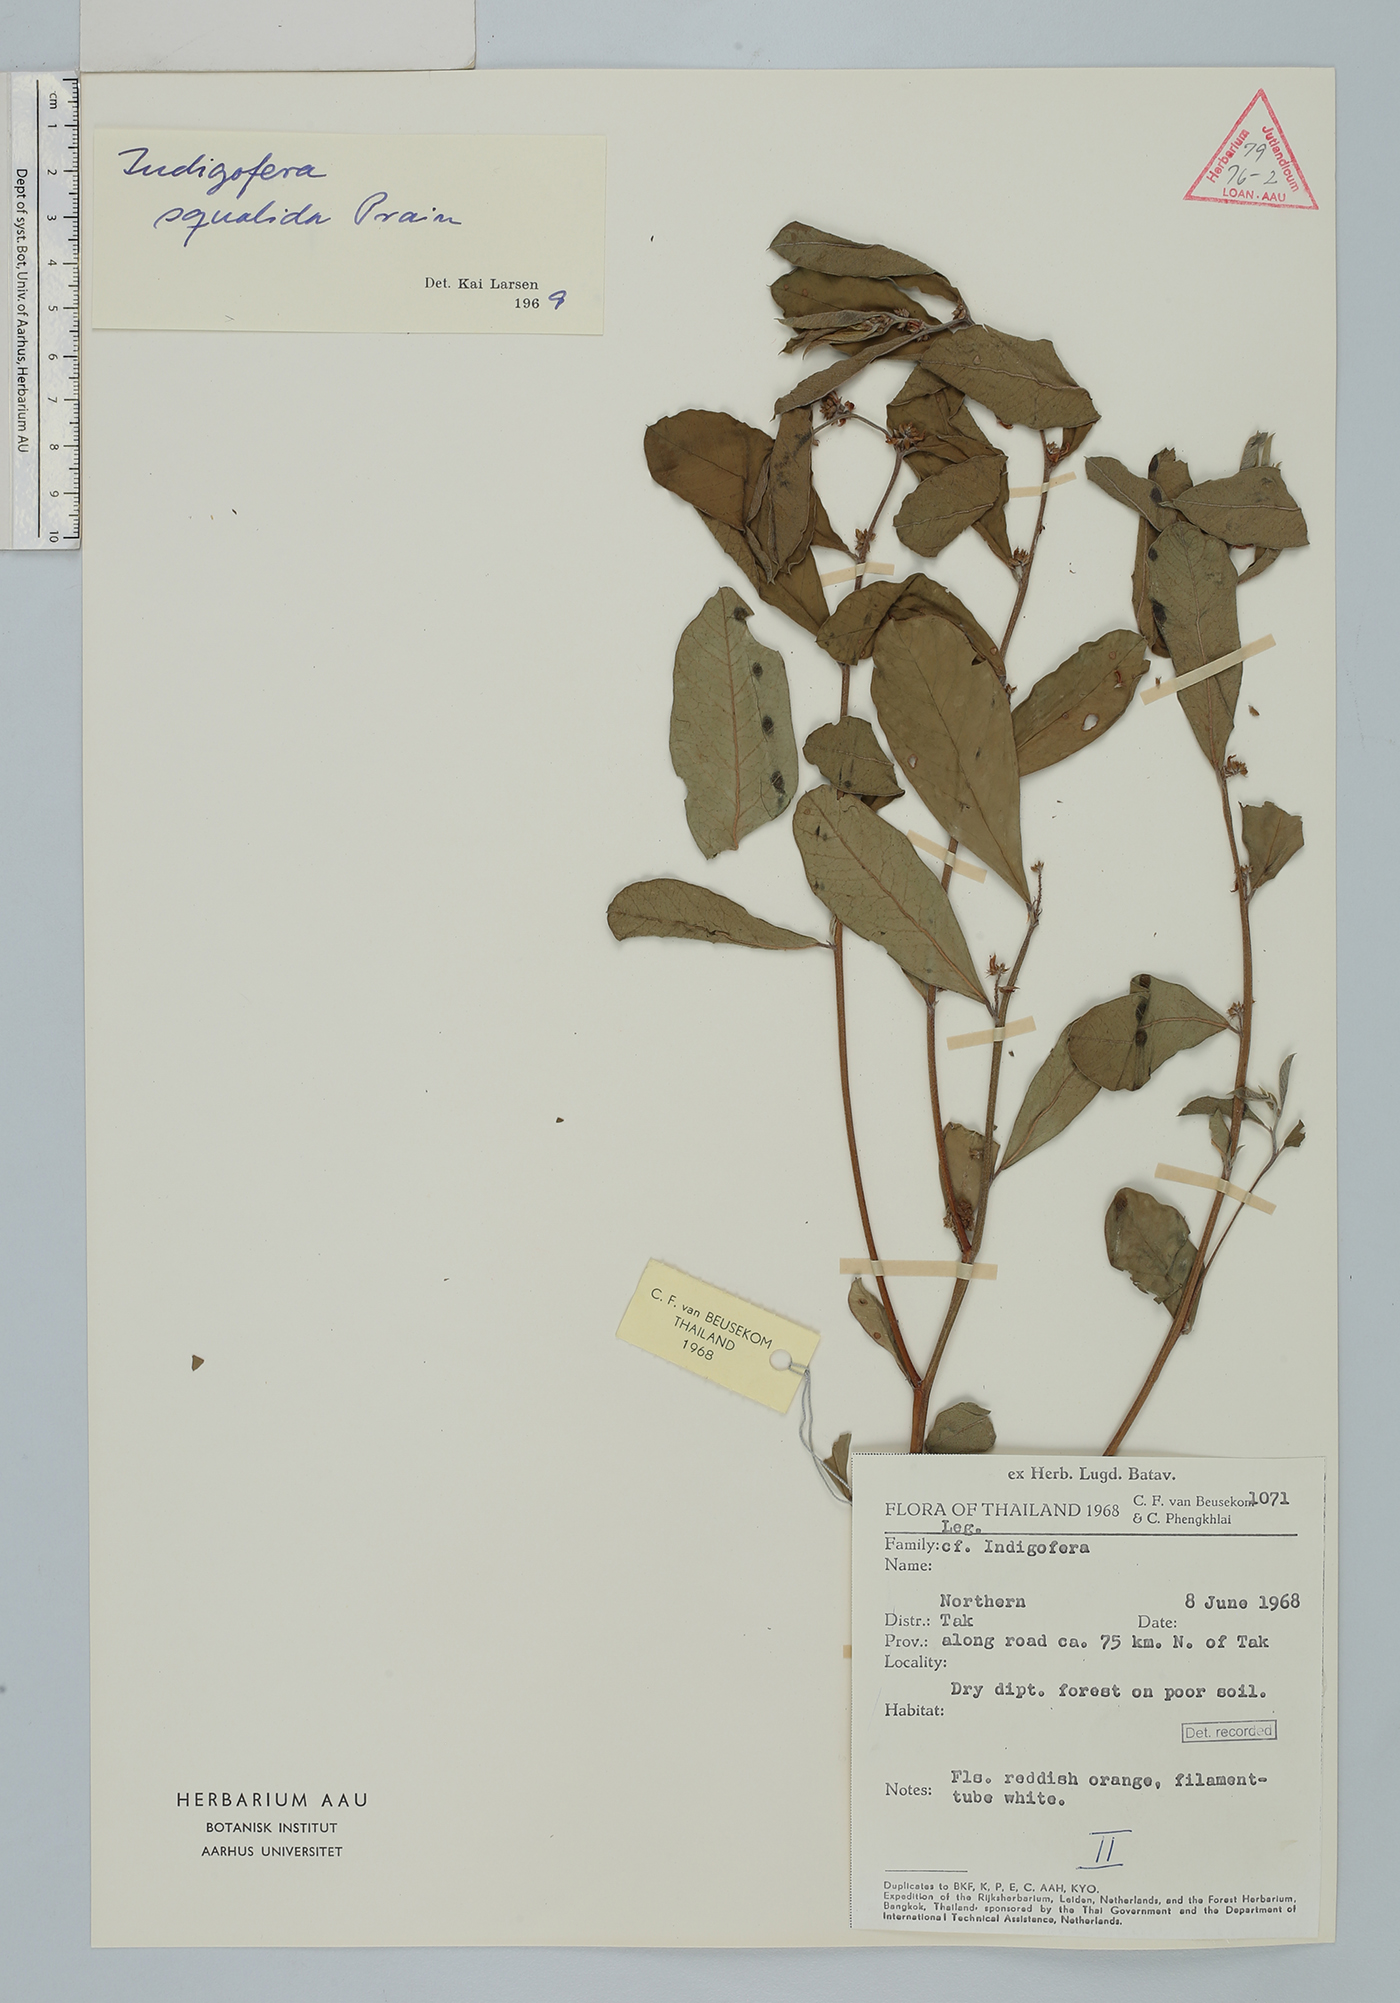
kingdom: Plantae
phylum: Tracheophyta
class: Magnoliopsida
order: Fabales
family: Fabaceae
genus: Indigofera
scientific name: Indigofera squalida
